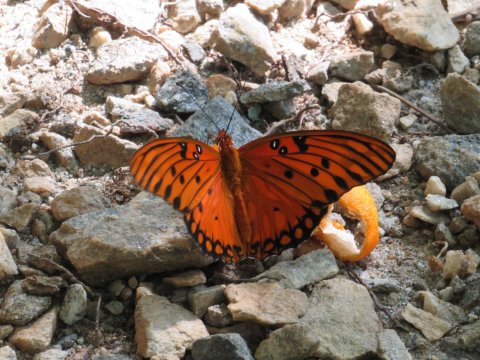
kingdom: Animalia
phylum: Arthropoda
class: Insecta
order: Lepidoptera
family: Nymphalidae
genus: Dione
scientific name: Dione vanillae
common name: Gulf Fritillary
